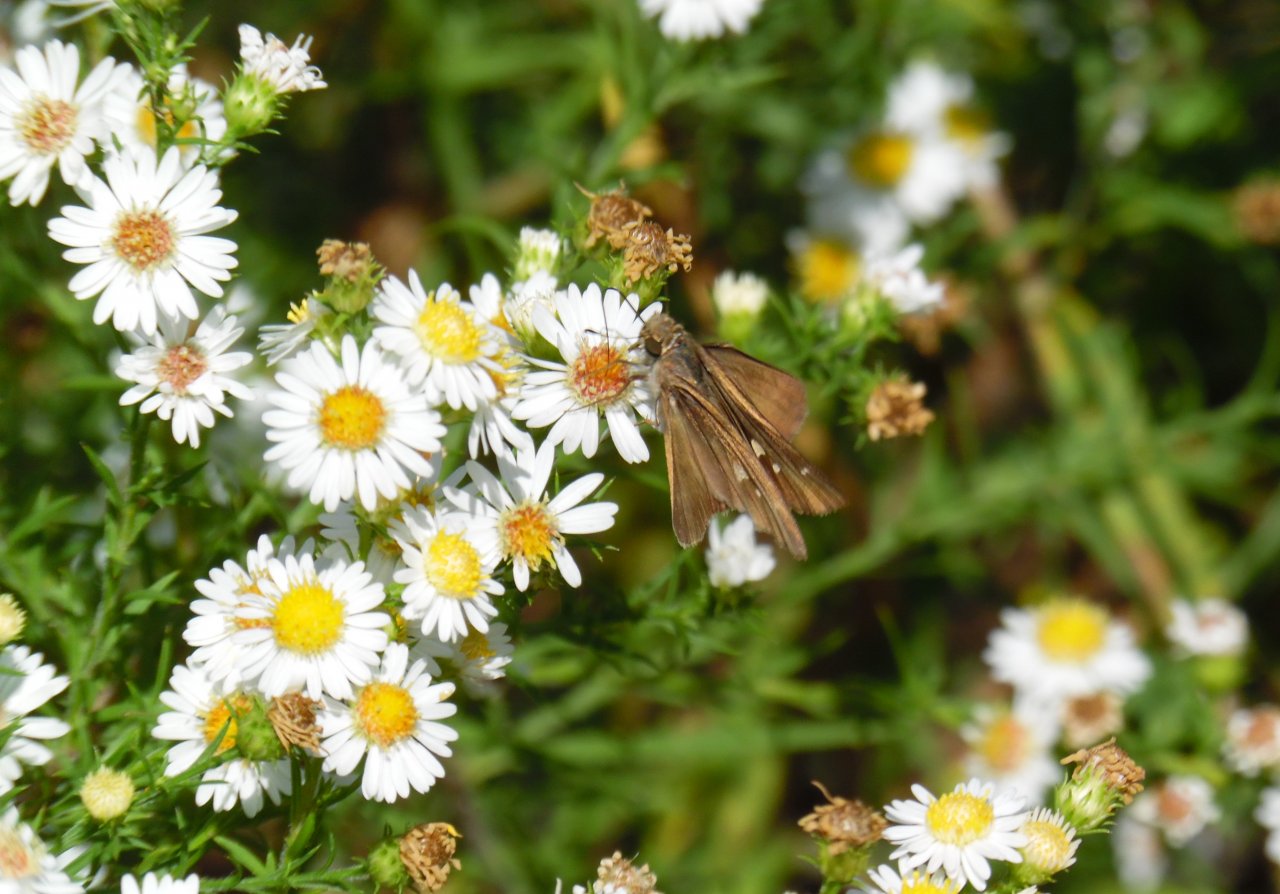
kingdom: Animalia
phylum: Arthropoda
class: Insecta
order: Lepidoptera
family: Hesperiidae
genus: Panoquina
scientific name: Panoquina ocola
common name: Ocola Skipper
